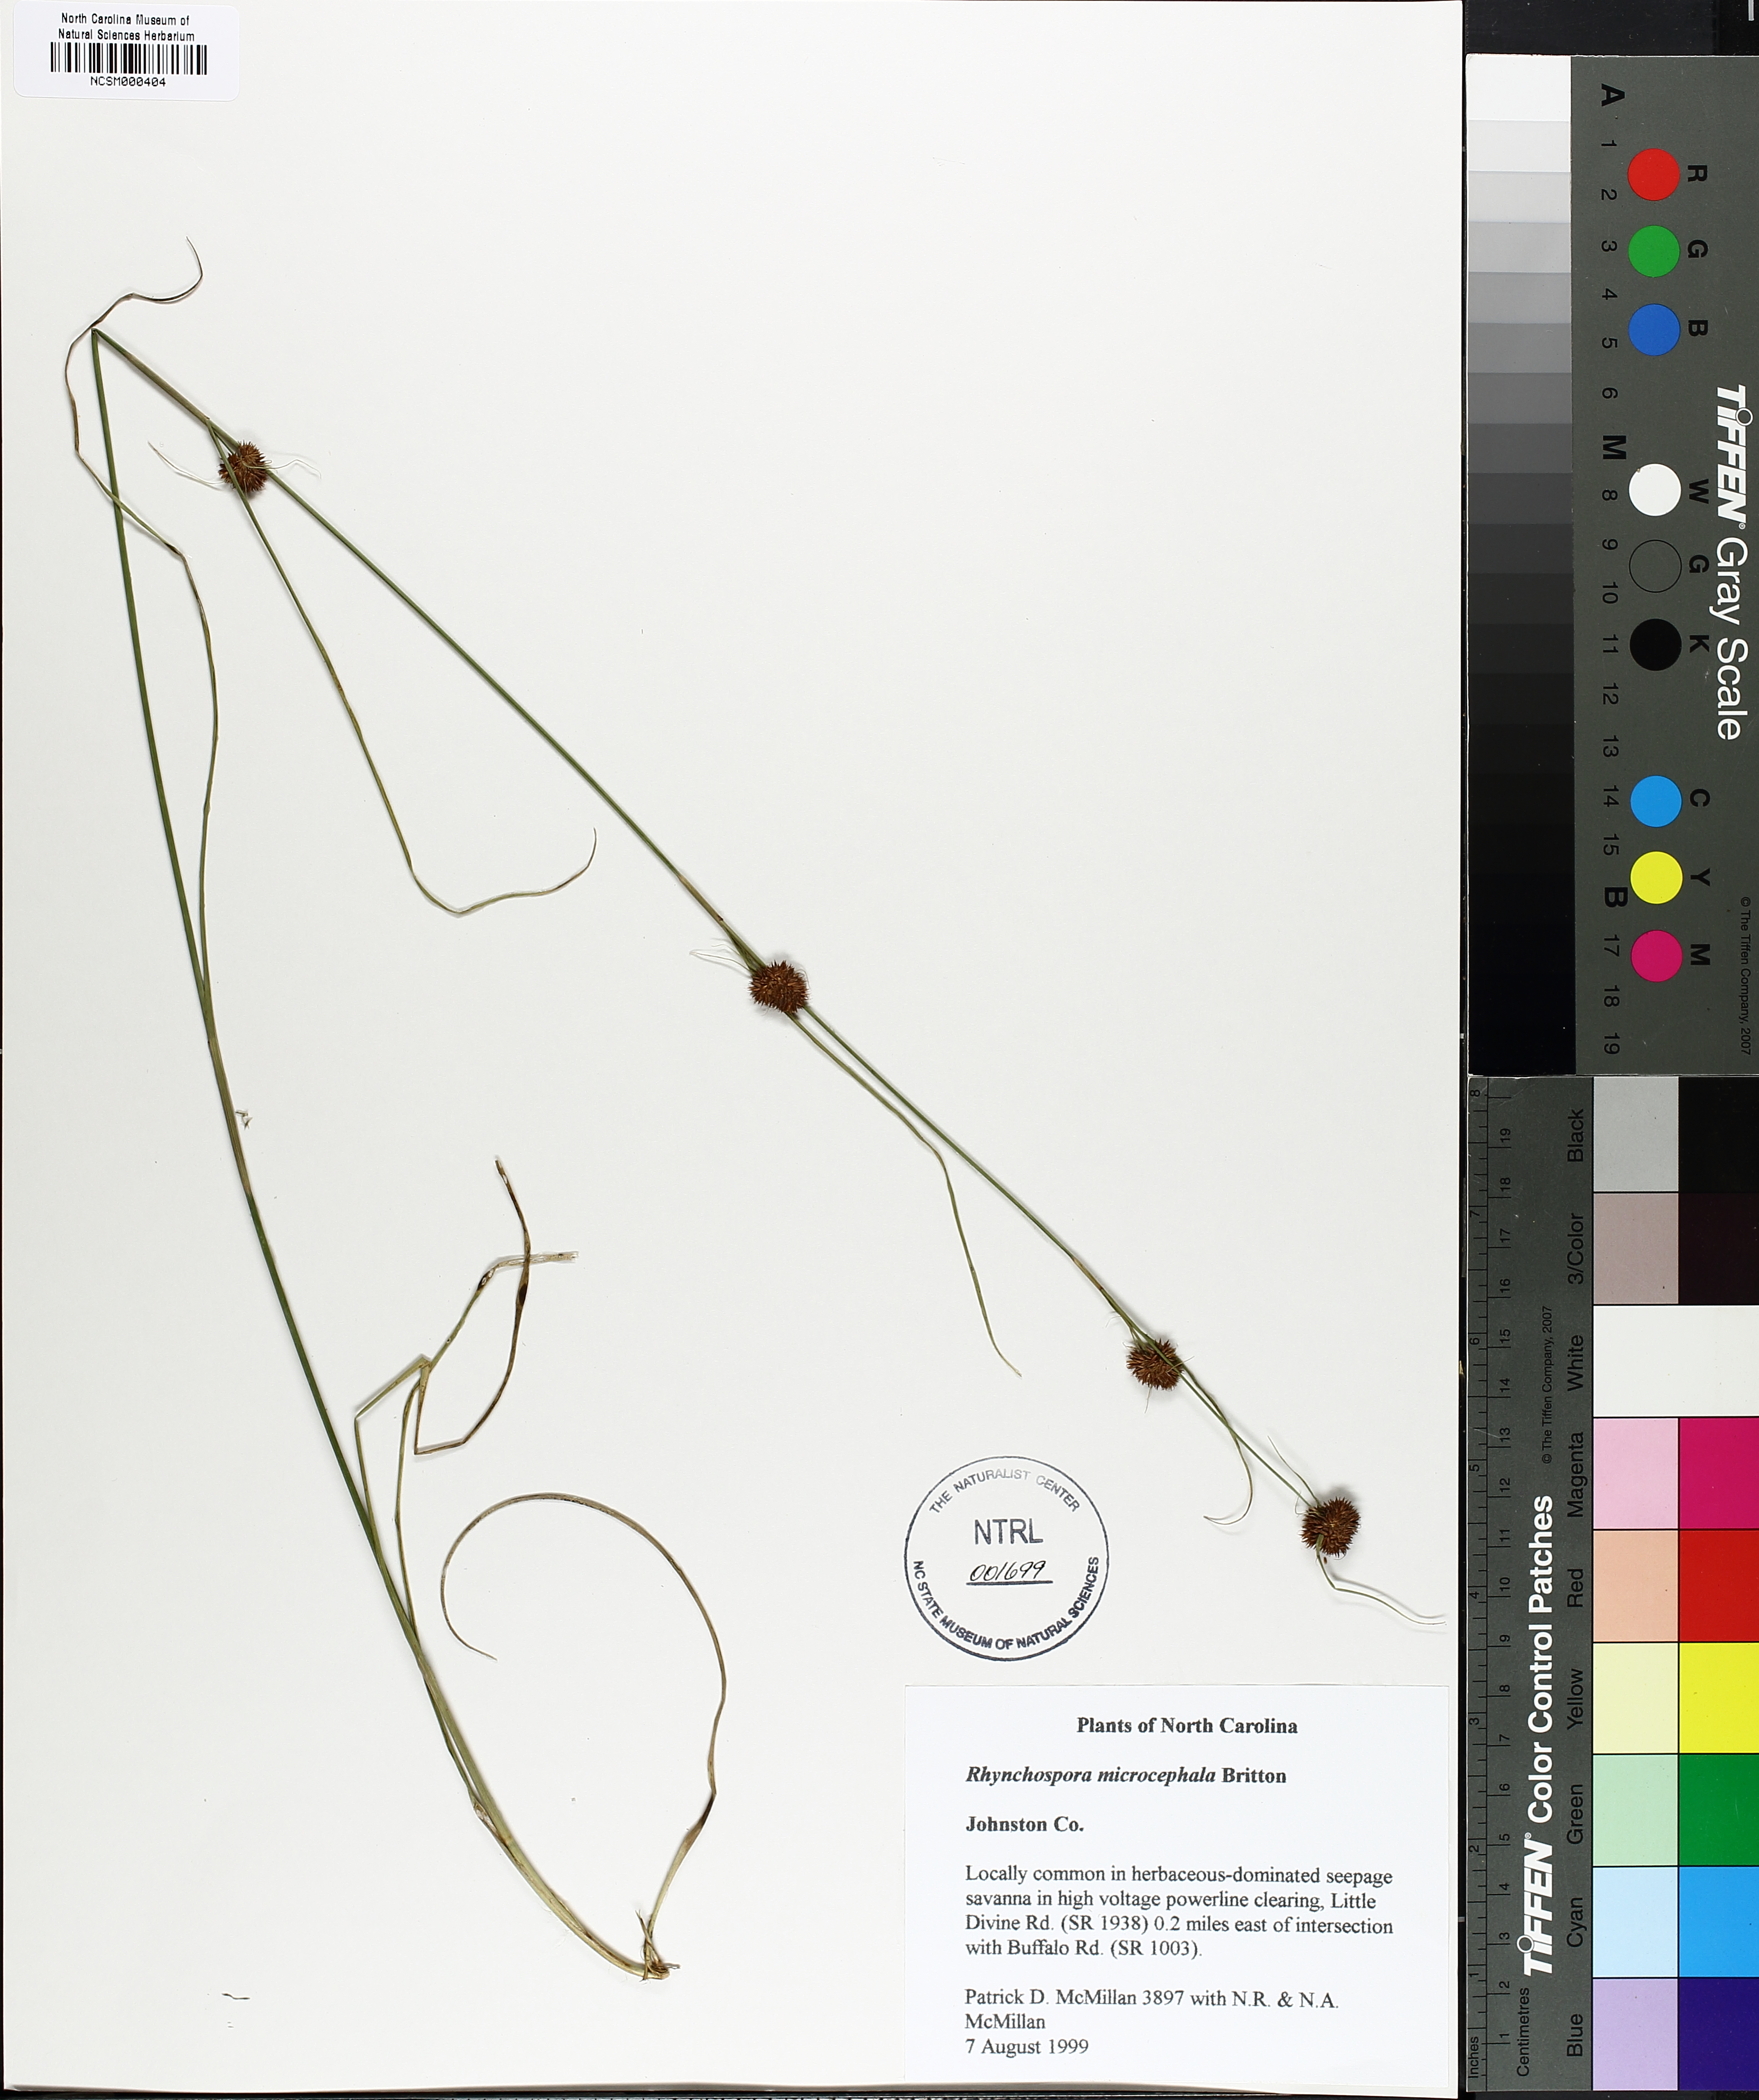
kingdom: Plantae
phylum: Tracheophyta
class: Liliopsida
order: Poales
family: Cyperaceae
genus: Rhynchospora
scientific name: Rhynchospora microcephala
